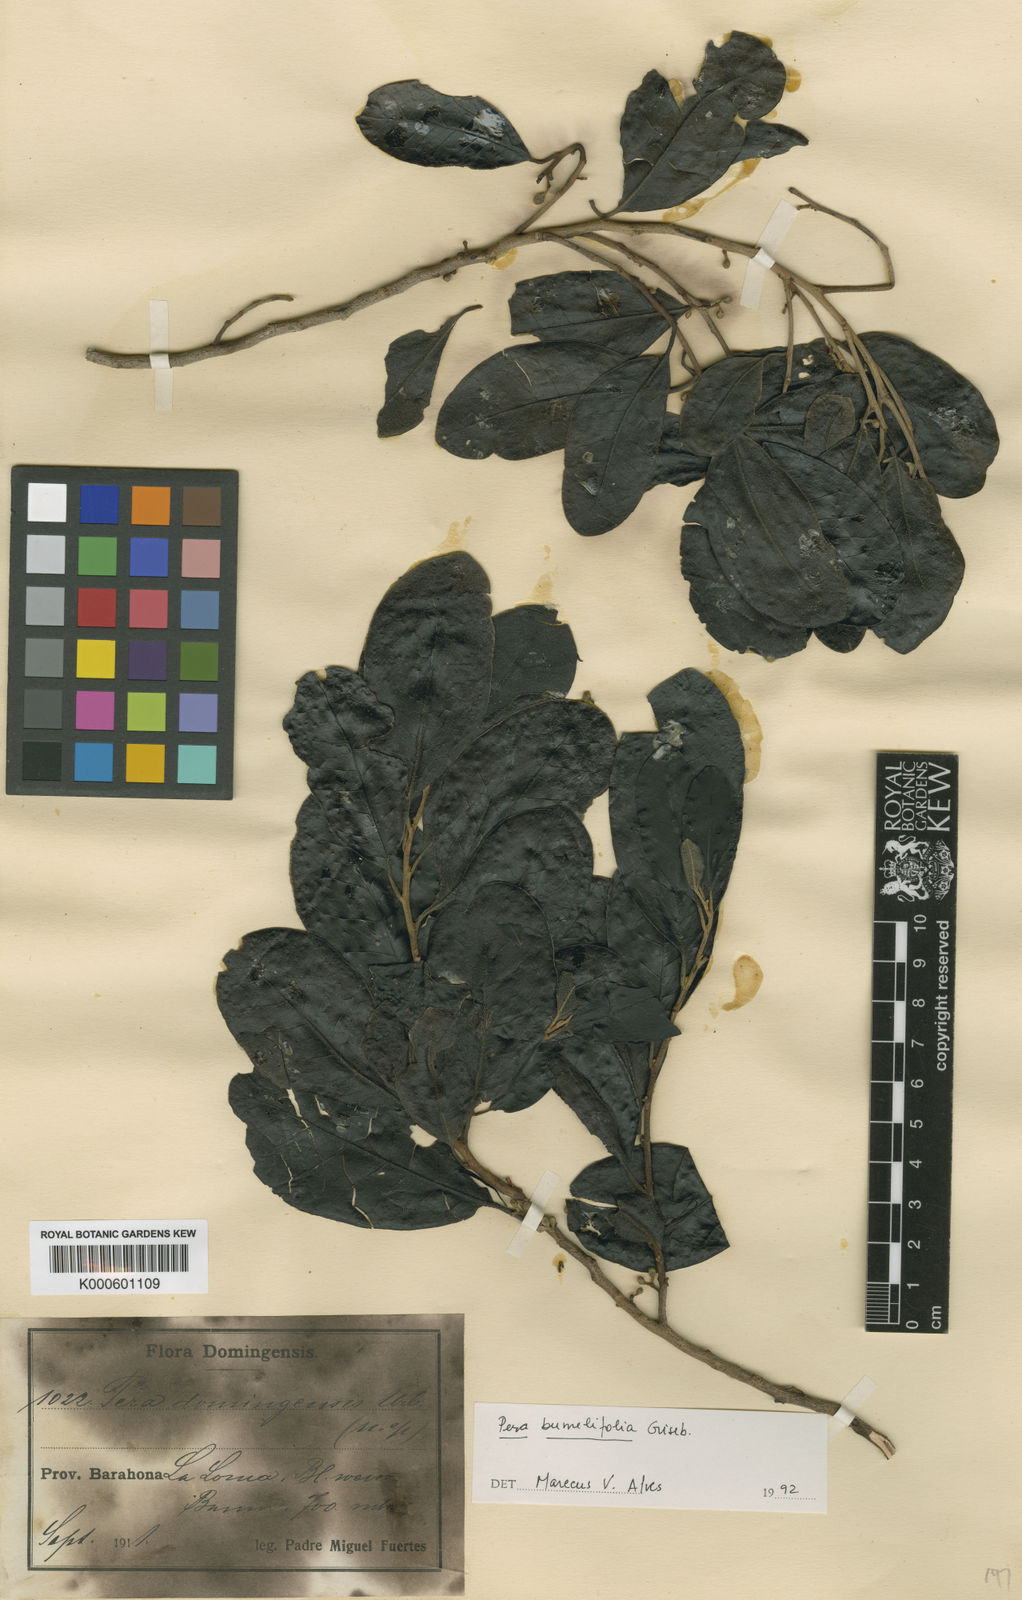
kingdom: Plantae
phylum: Tracheophyta
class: Magnoliopsida
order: Malpighiales
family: Peraceae
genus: Pera
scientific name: Pera bumeliifolia
